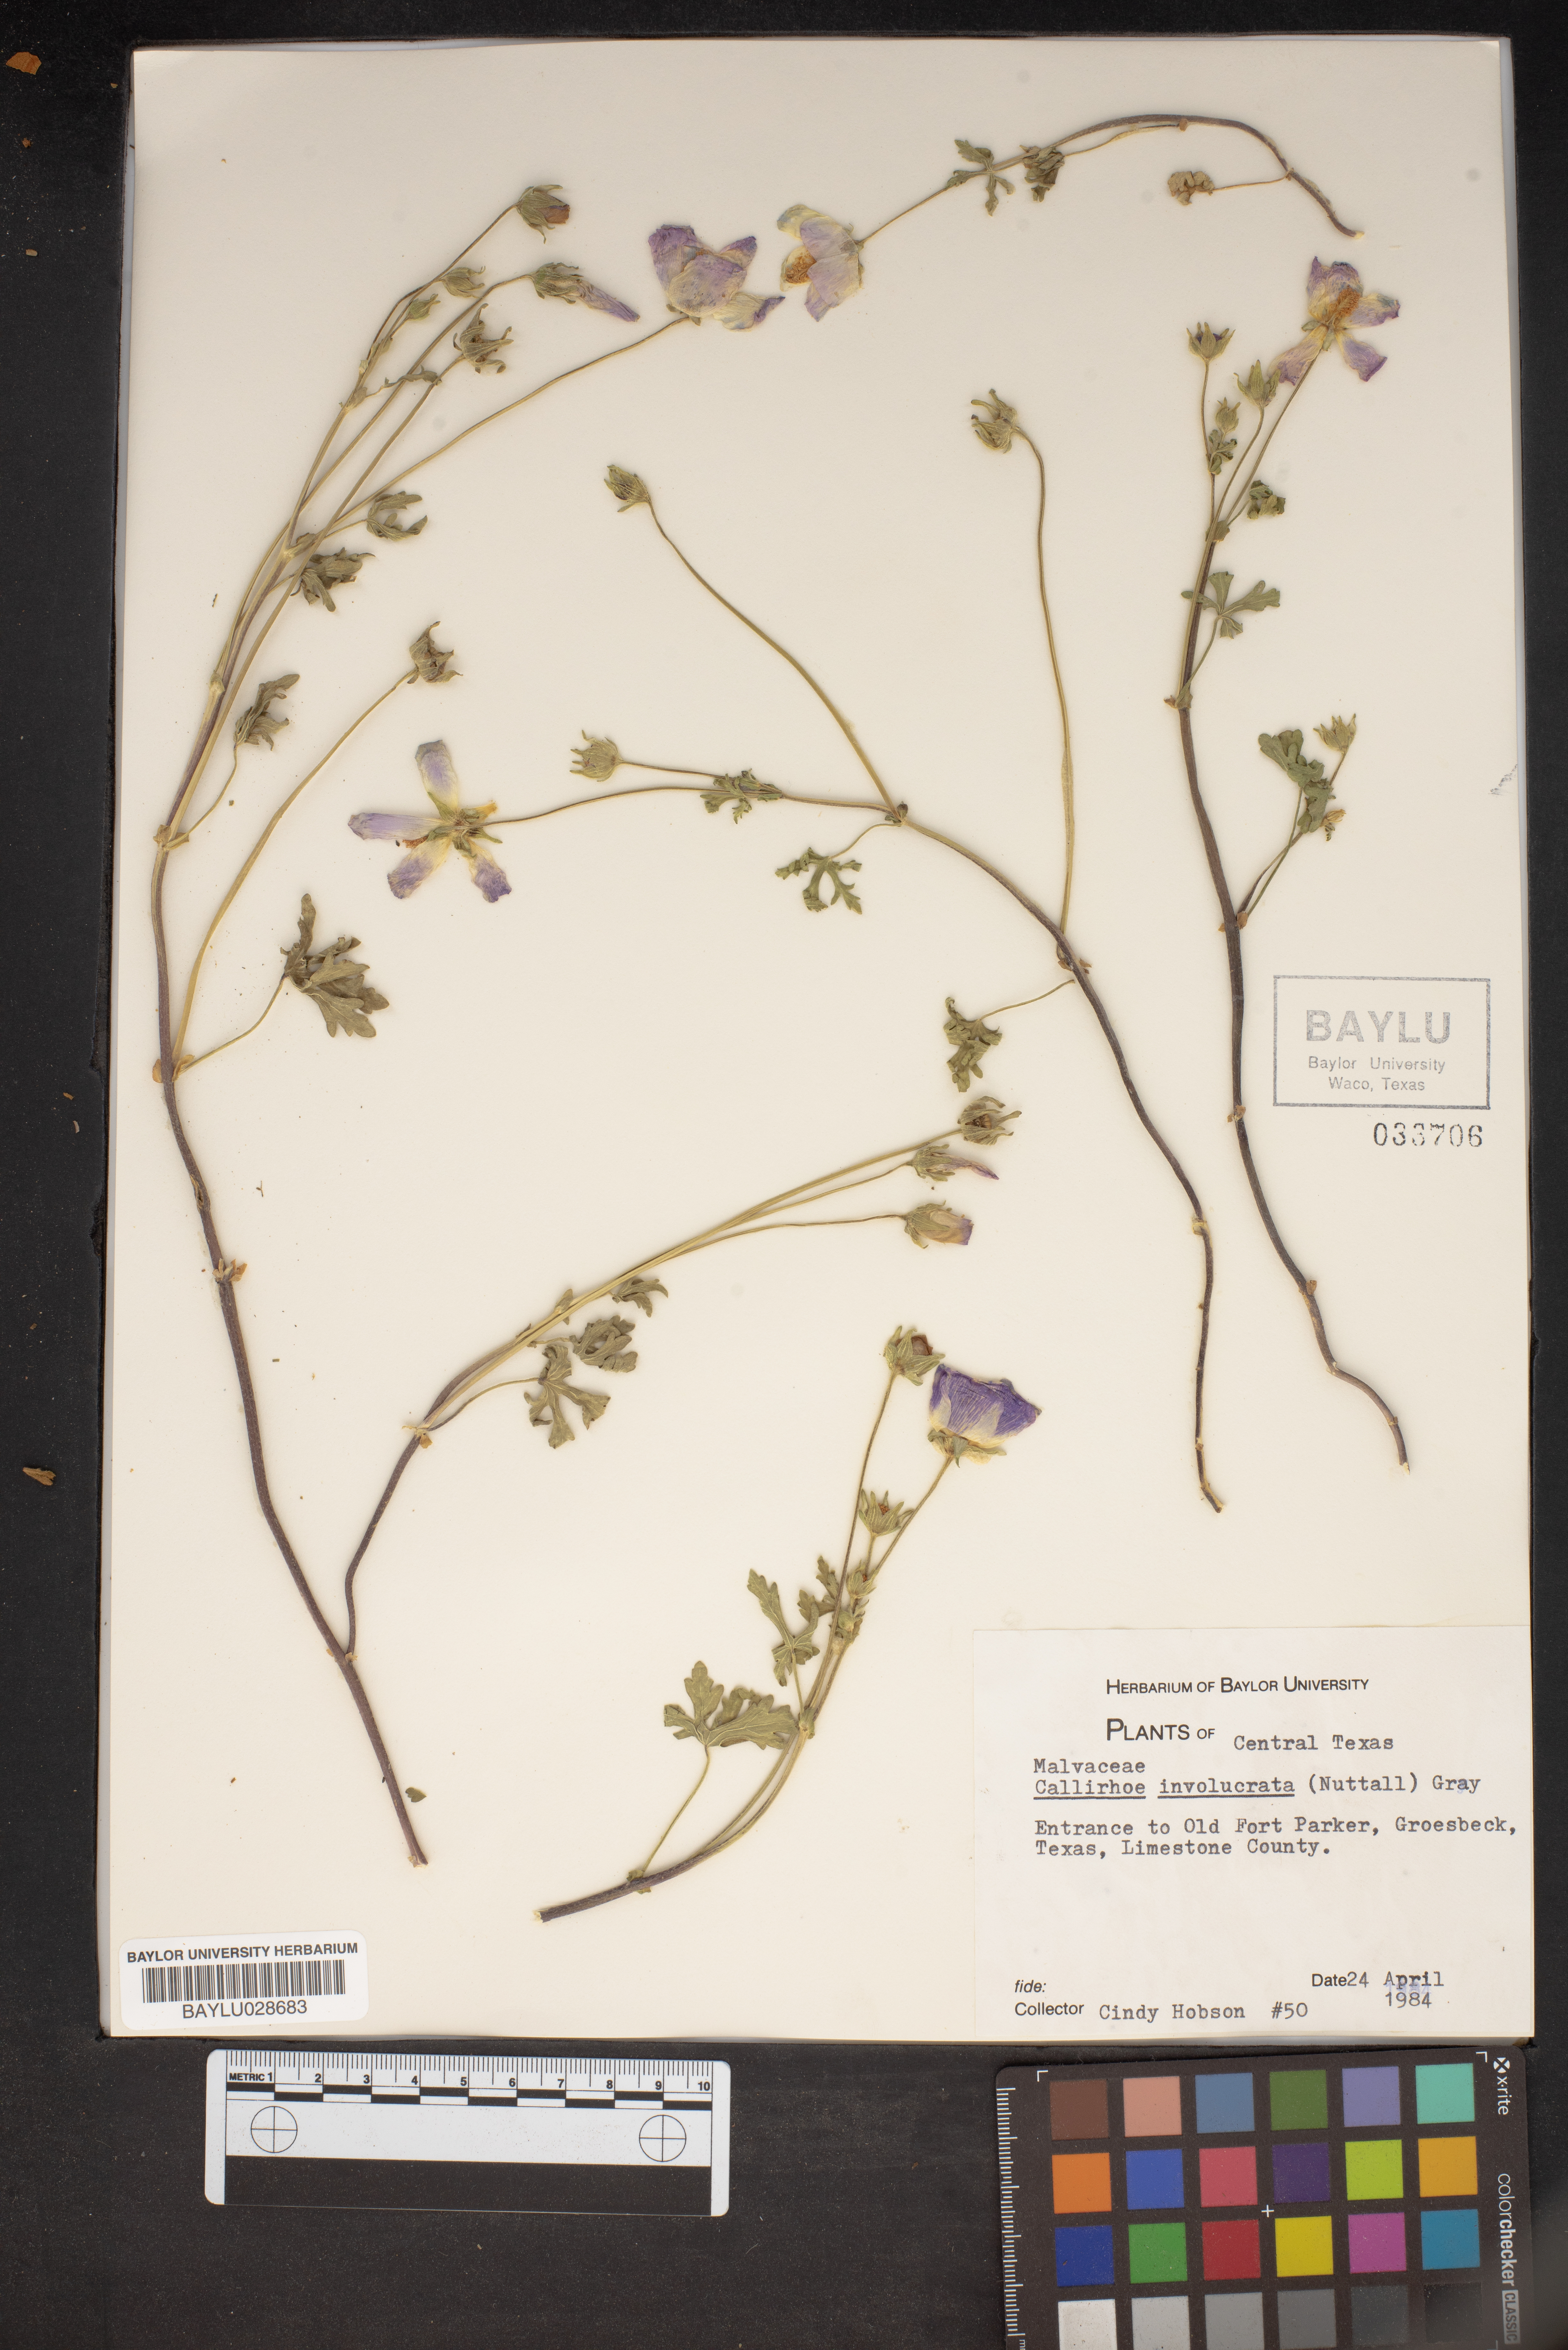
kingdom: Plantae
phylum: Tracheophyta
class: Magnoliopsida
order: Malvales
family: Malvaceae
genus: Callirhoe
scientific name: Callirhoe involucrata
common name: Purple poppy-mallow
